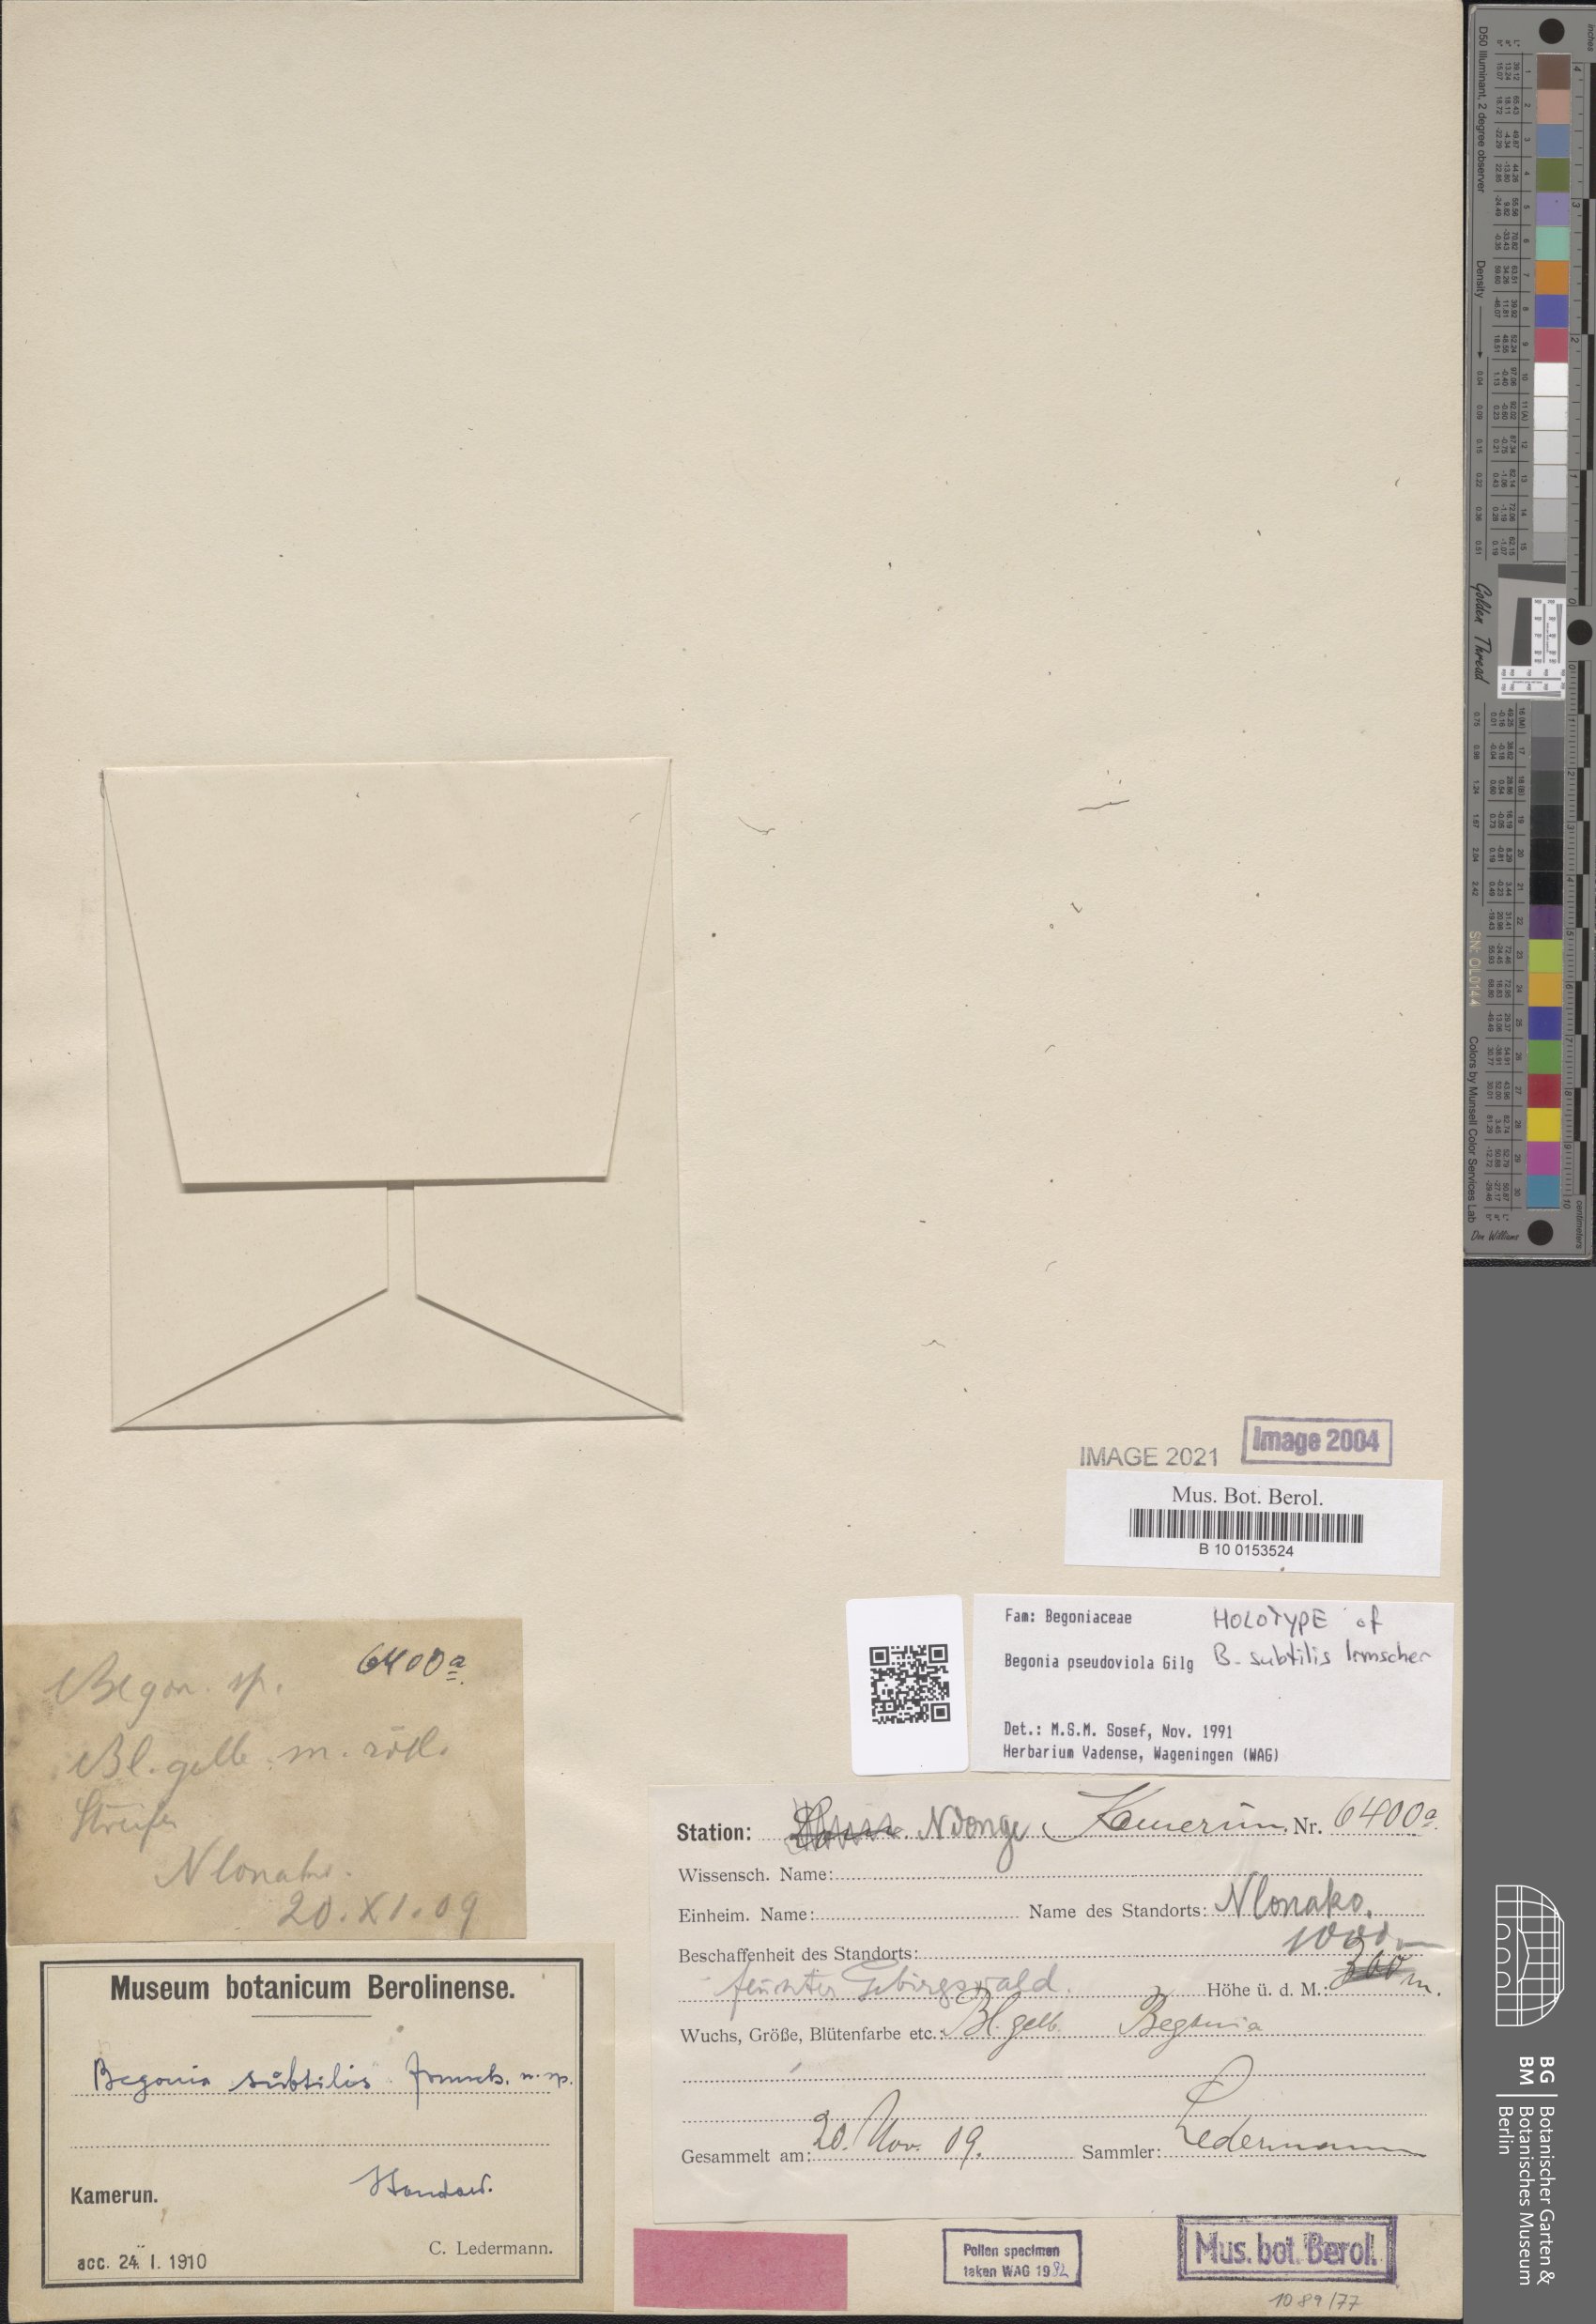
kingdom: Plantae
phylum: Tracheophyta
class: Magnoliopsida
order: Cucurbitales
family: Begoniaceae
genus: Begonia
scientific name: Begonia pseudoviola
